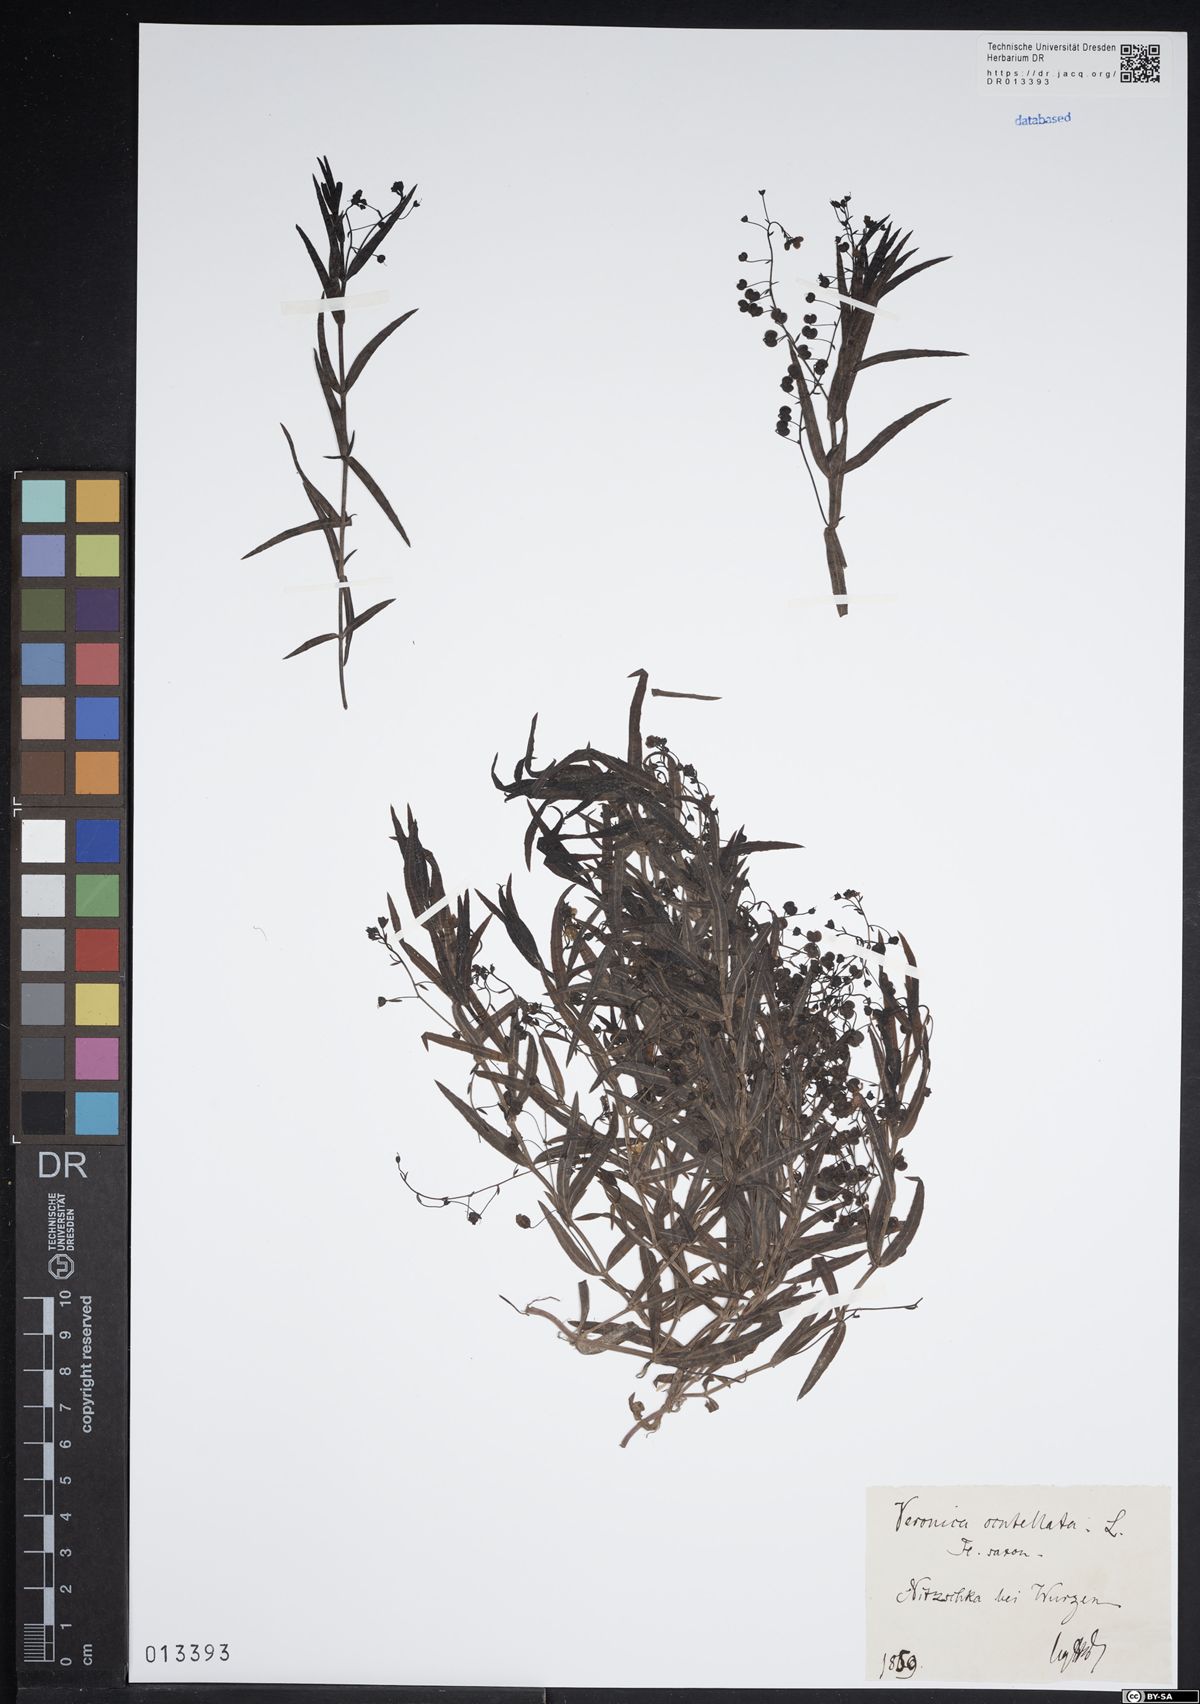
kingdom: Plantae
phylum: Tracheophyta
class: Magnoliopsida
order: Lamiales
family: Plantaginaceae
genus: Veronica
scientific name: Veronica scutellata
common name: Marsh speedwell
